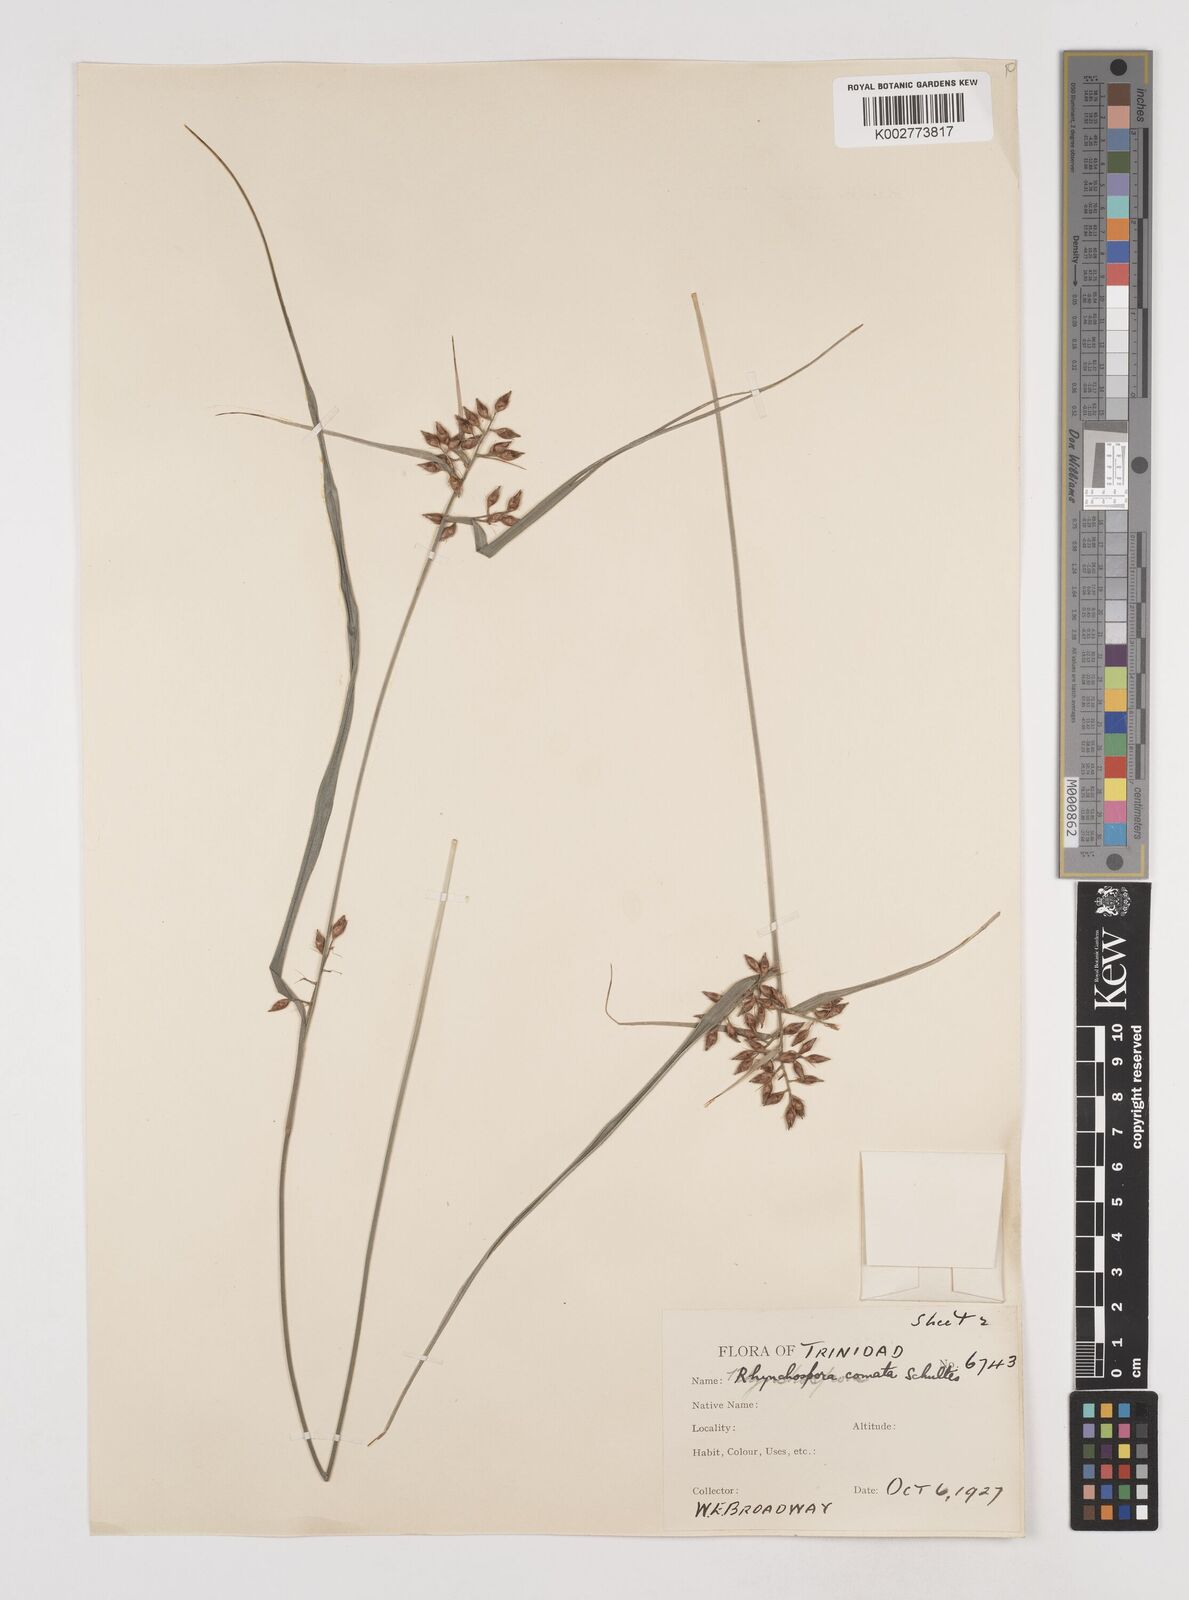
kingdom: Plantae
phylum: Tracheophyta
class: Liliopsida
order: Poales
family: Cyperaceae
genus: Rhynchospora
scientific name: Rhynchospora comata
